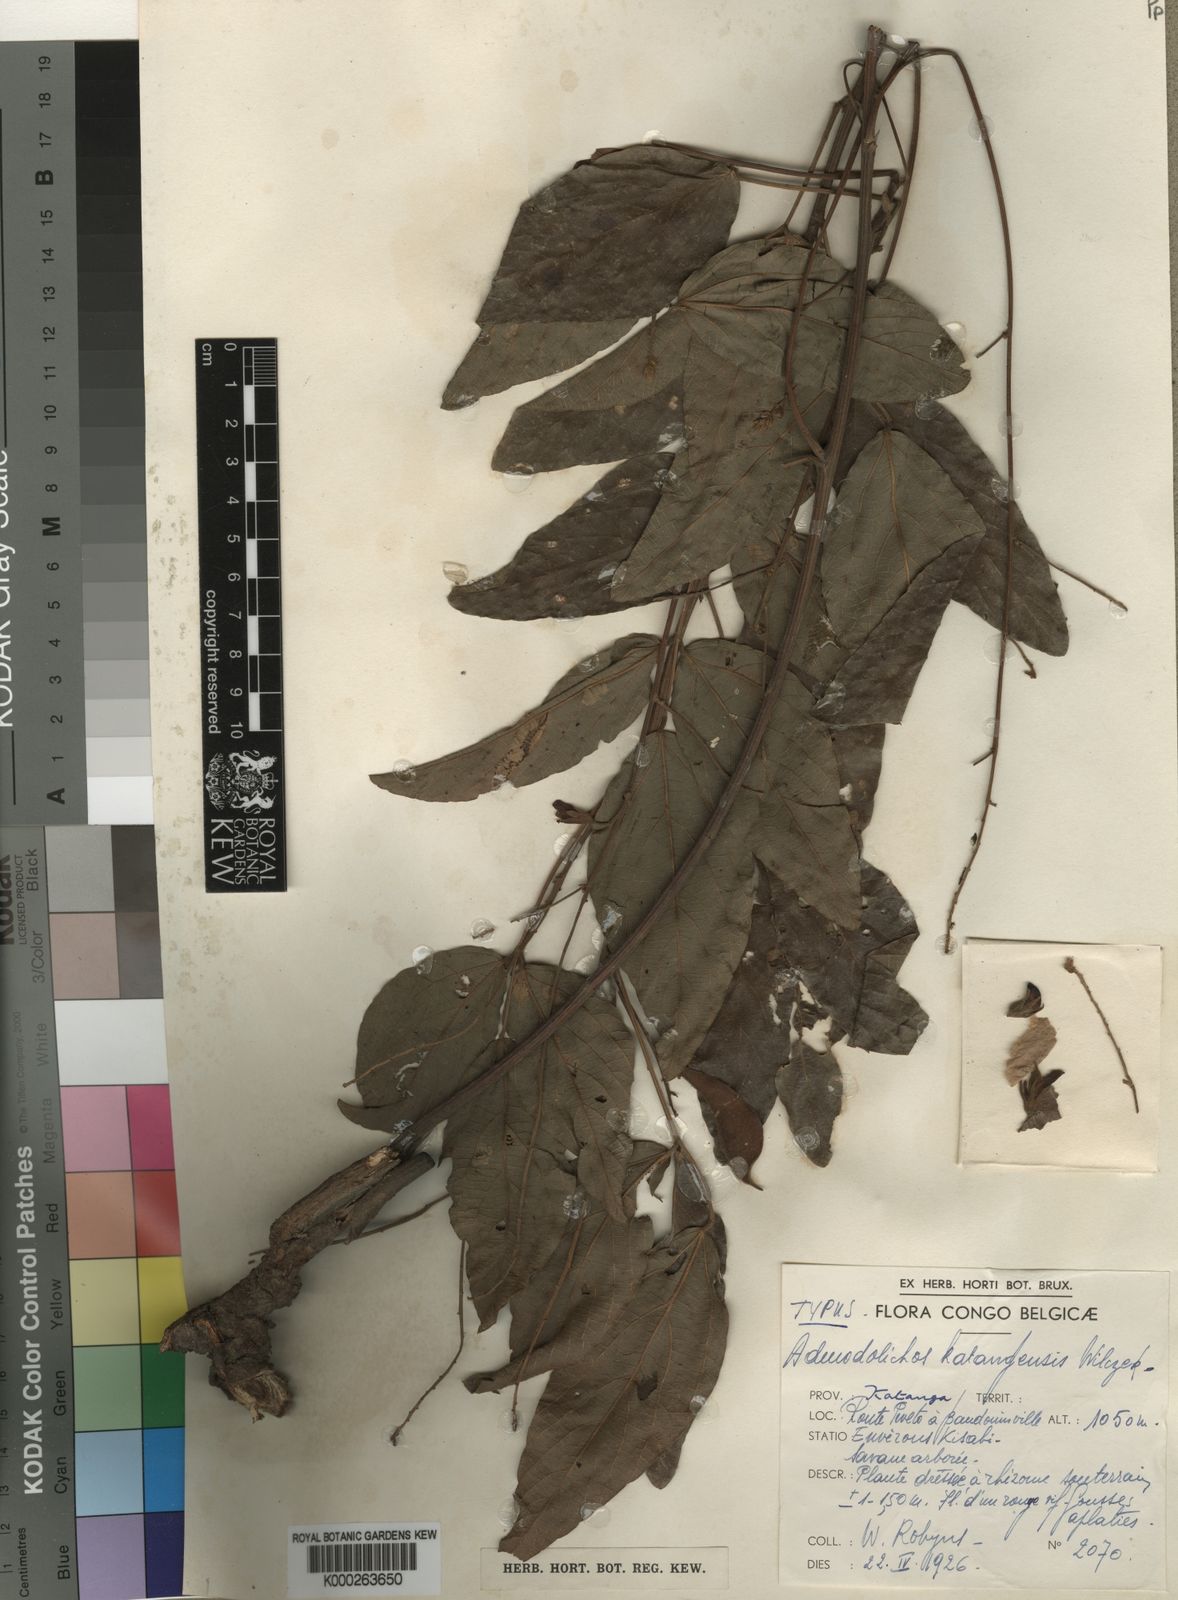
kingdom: Plantae
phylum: Tracheophyta
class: Magnoliopsida
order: Fabales
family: Fabaceae
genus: Adenodolichos
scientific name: Adenodolichos katangensis
